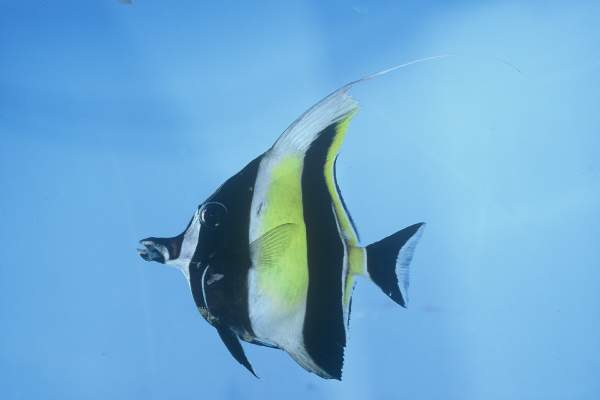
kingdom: Animalia
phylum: Chordata
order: Perciformes
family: Zanclidae
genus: Zanclus
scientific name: Zanclus cornutus
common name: Moorish idol
